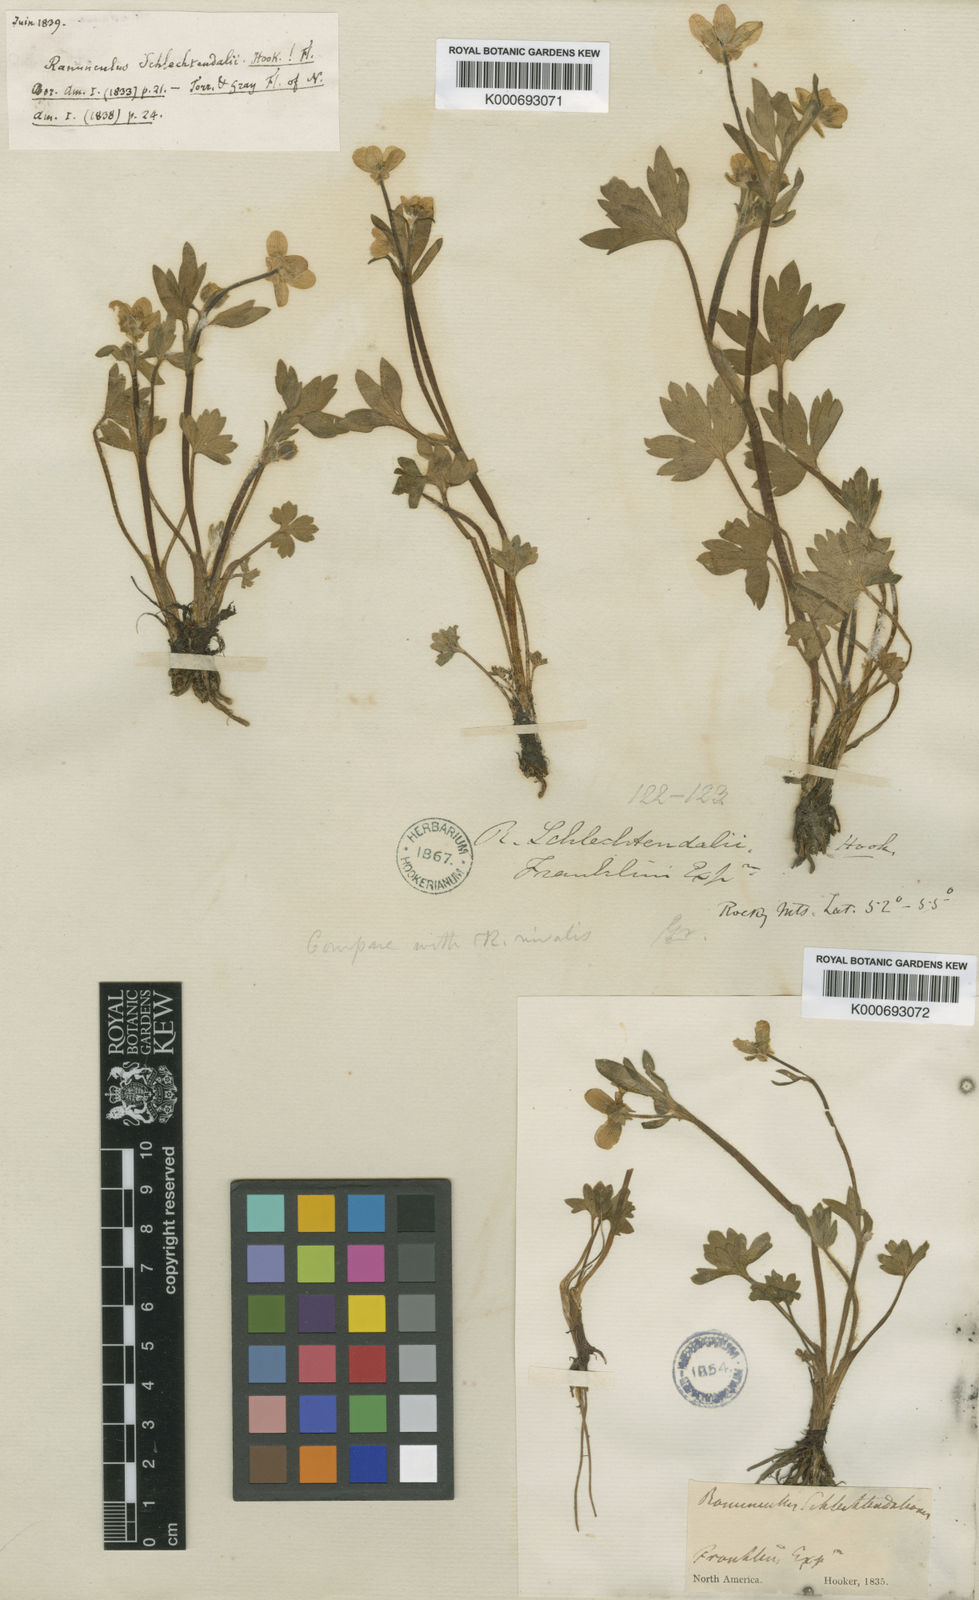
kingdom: Plantae
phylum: Tracheophyta
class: Magnoliopsida
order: Ranunculales
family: Ranunculaceae
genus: Ranunculus
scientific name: Ranunculus hispidus
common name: Bristly buttercup
